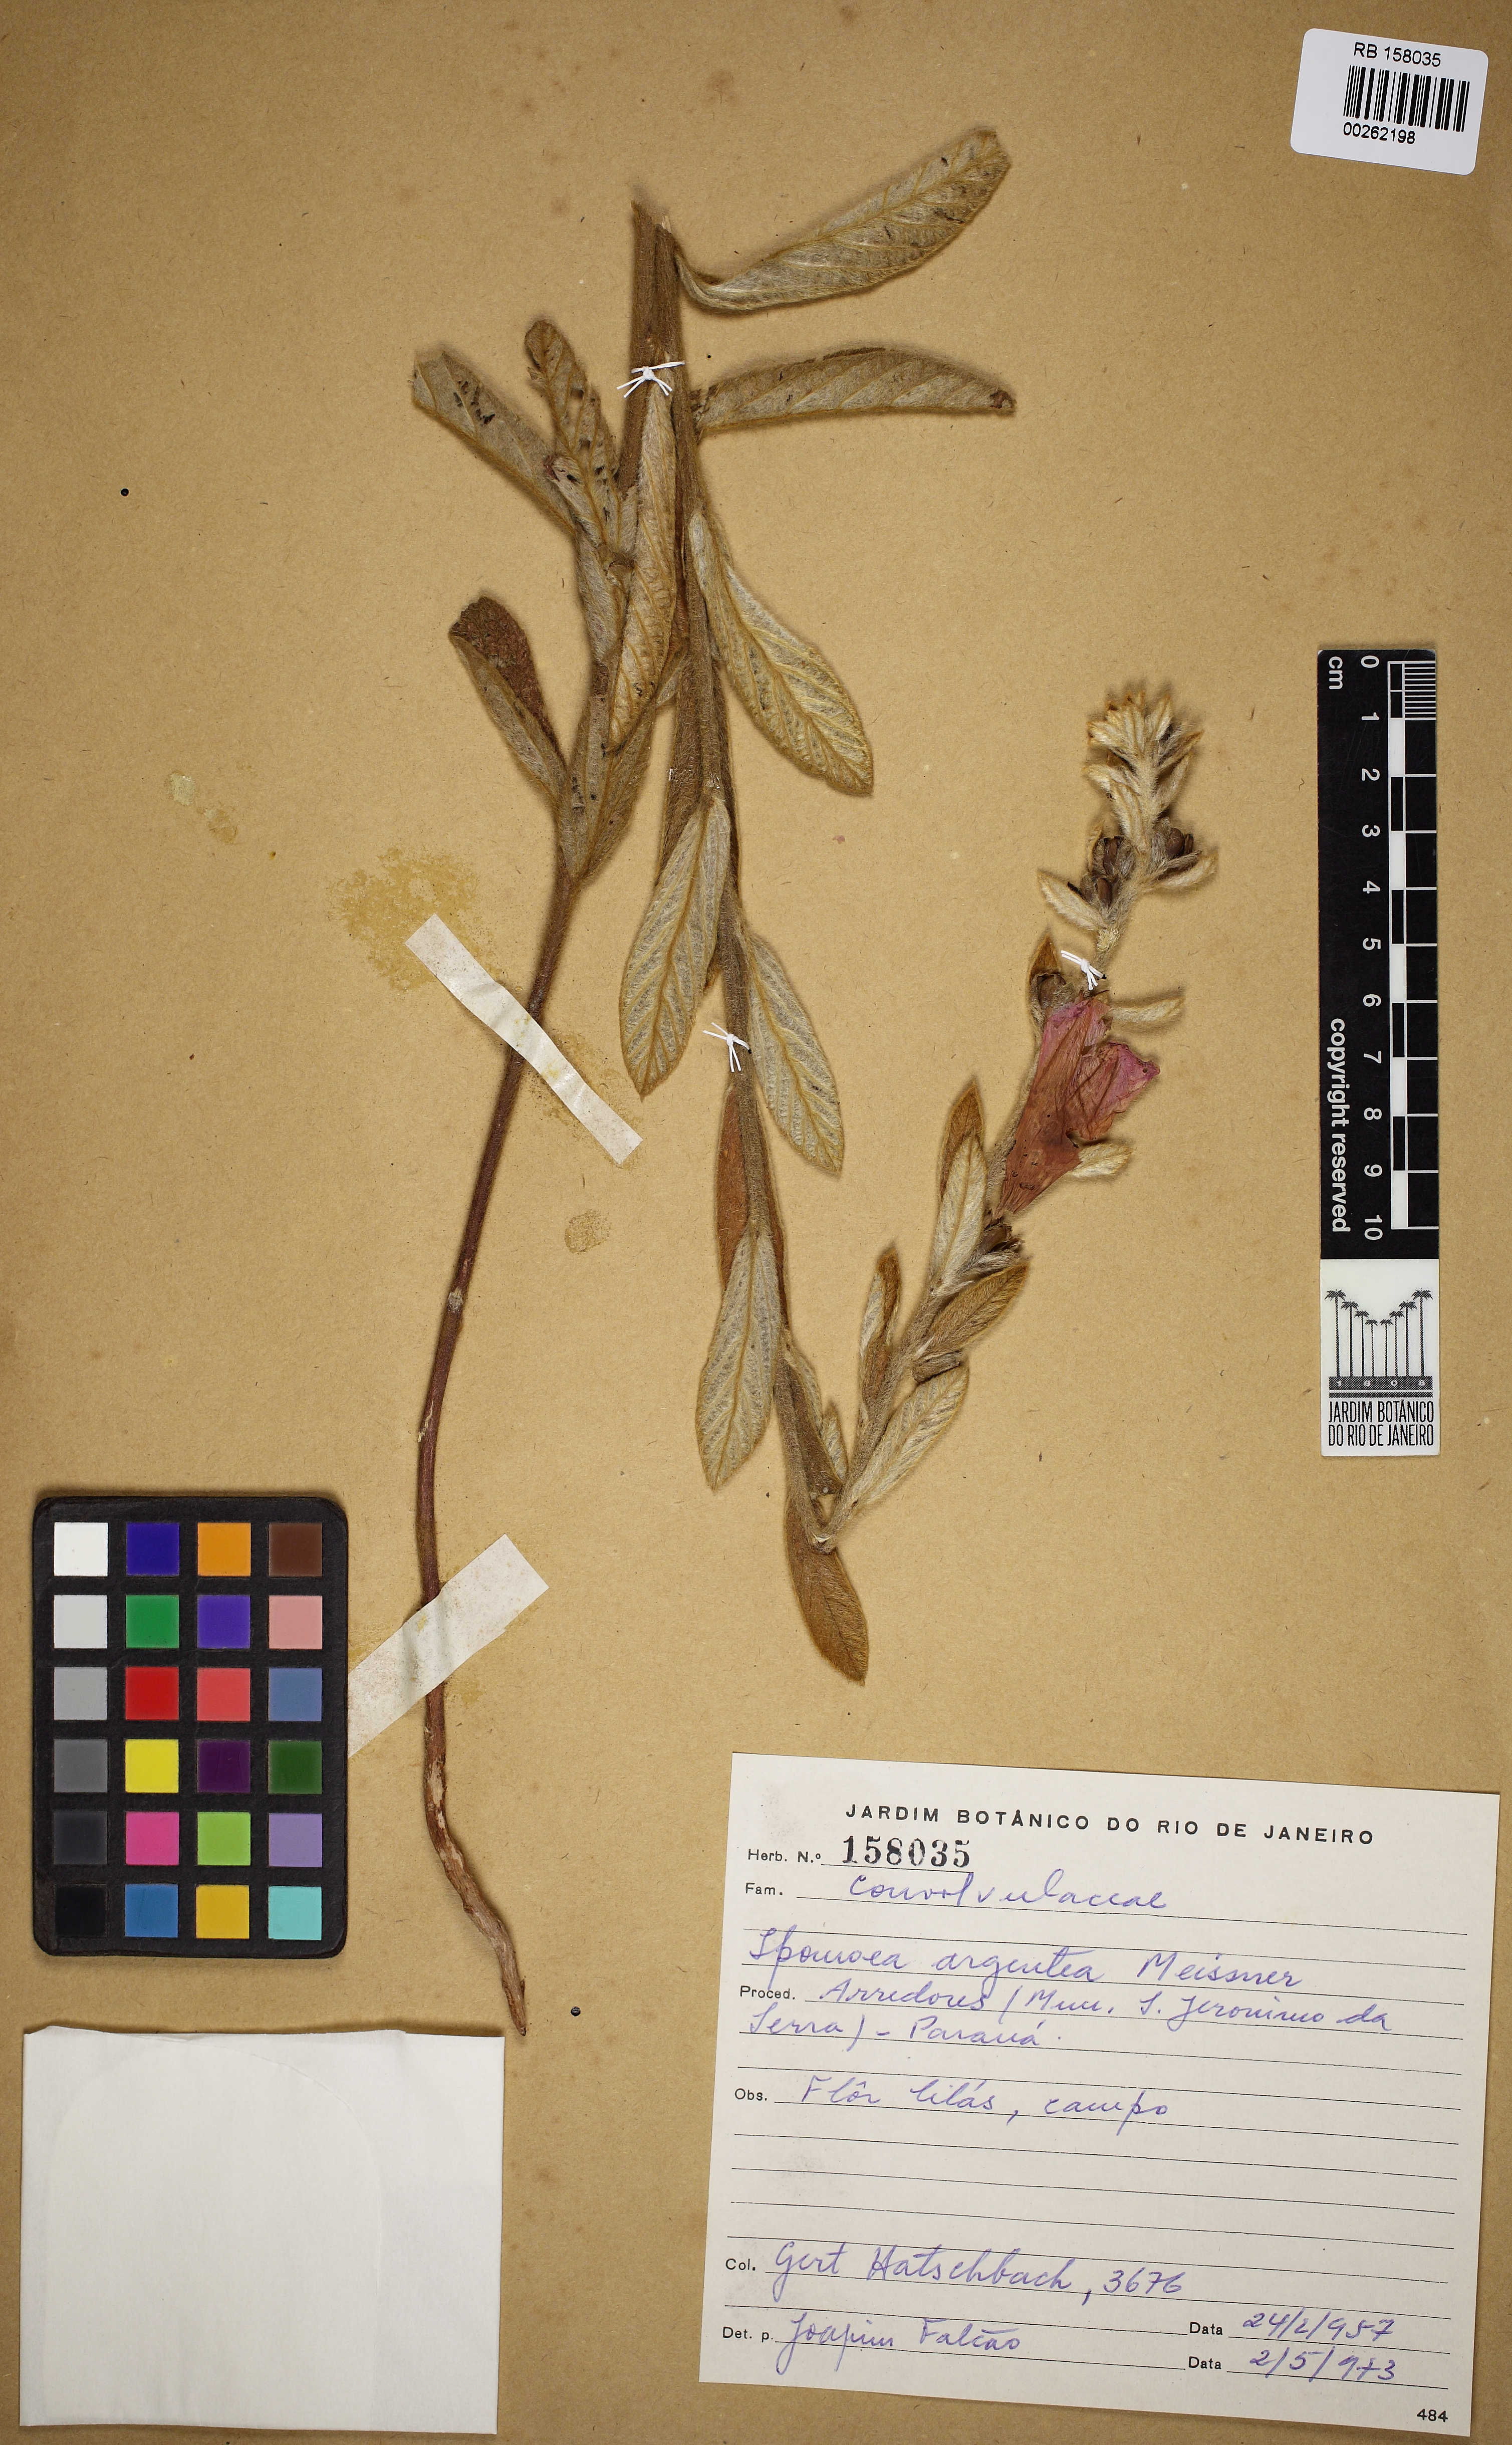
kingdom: Plantae
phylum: Tracheophyta
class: Magnoliopsida
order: Solanales
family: Convolvulaceae
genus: Ipomoea
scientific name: Ipomoea argentea
